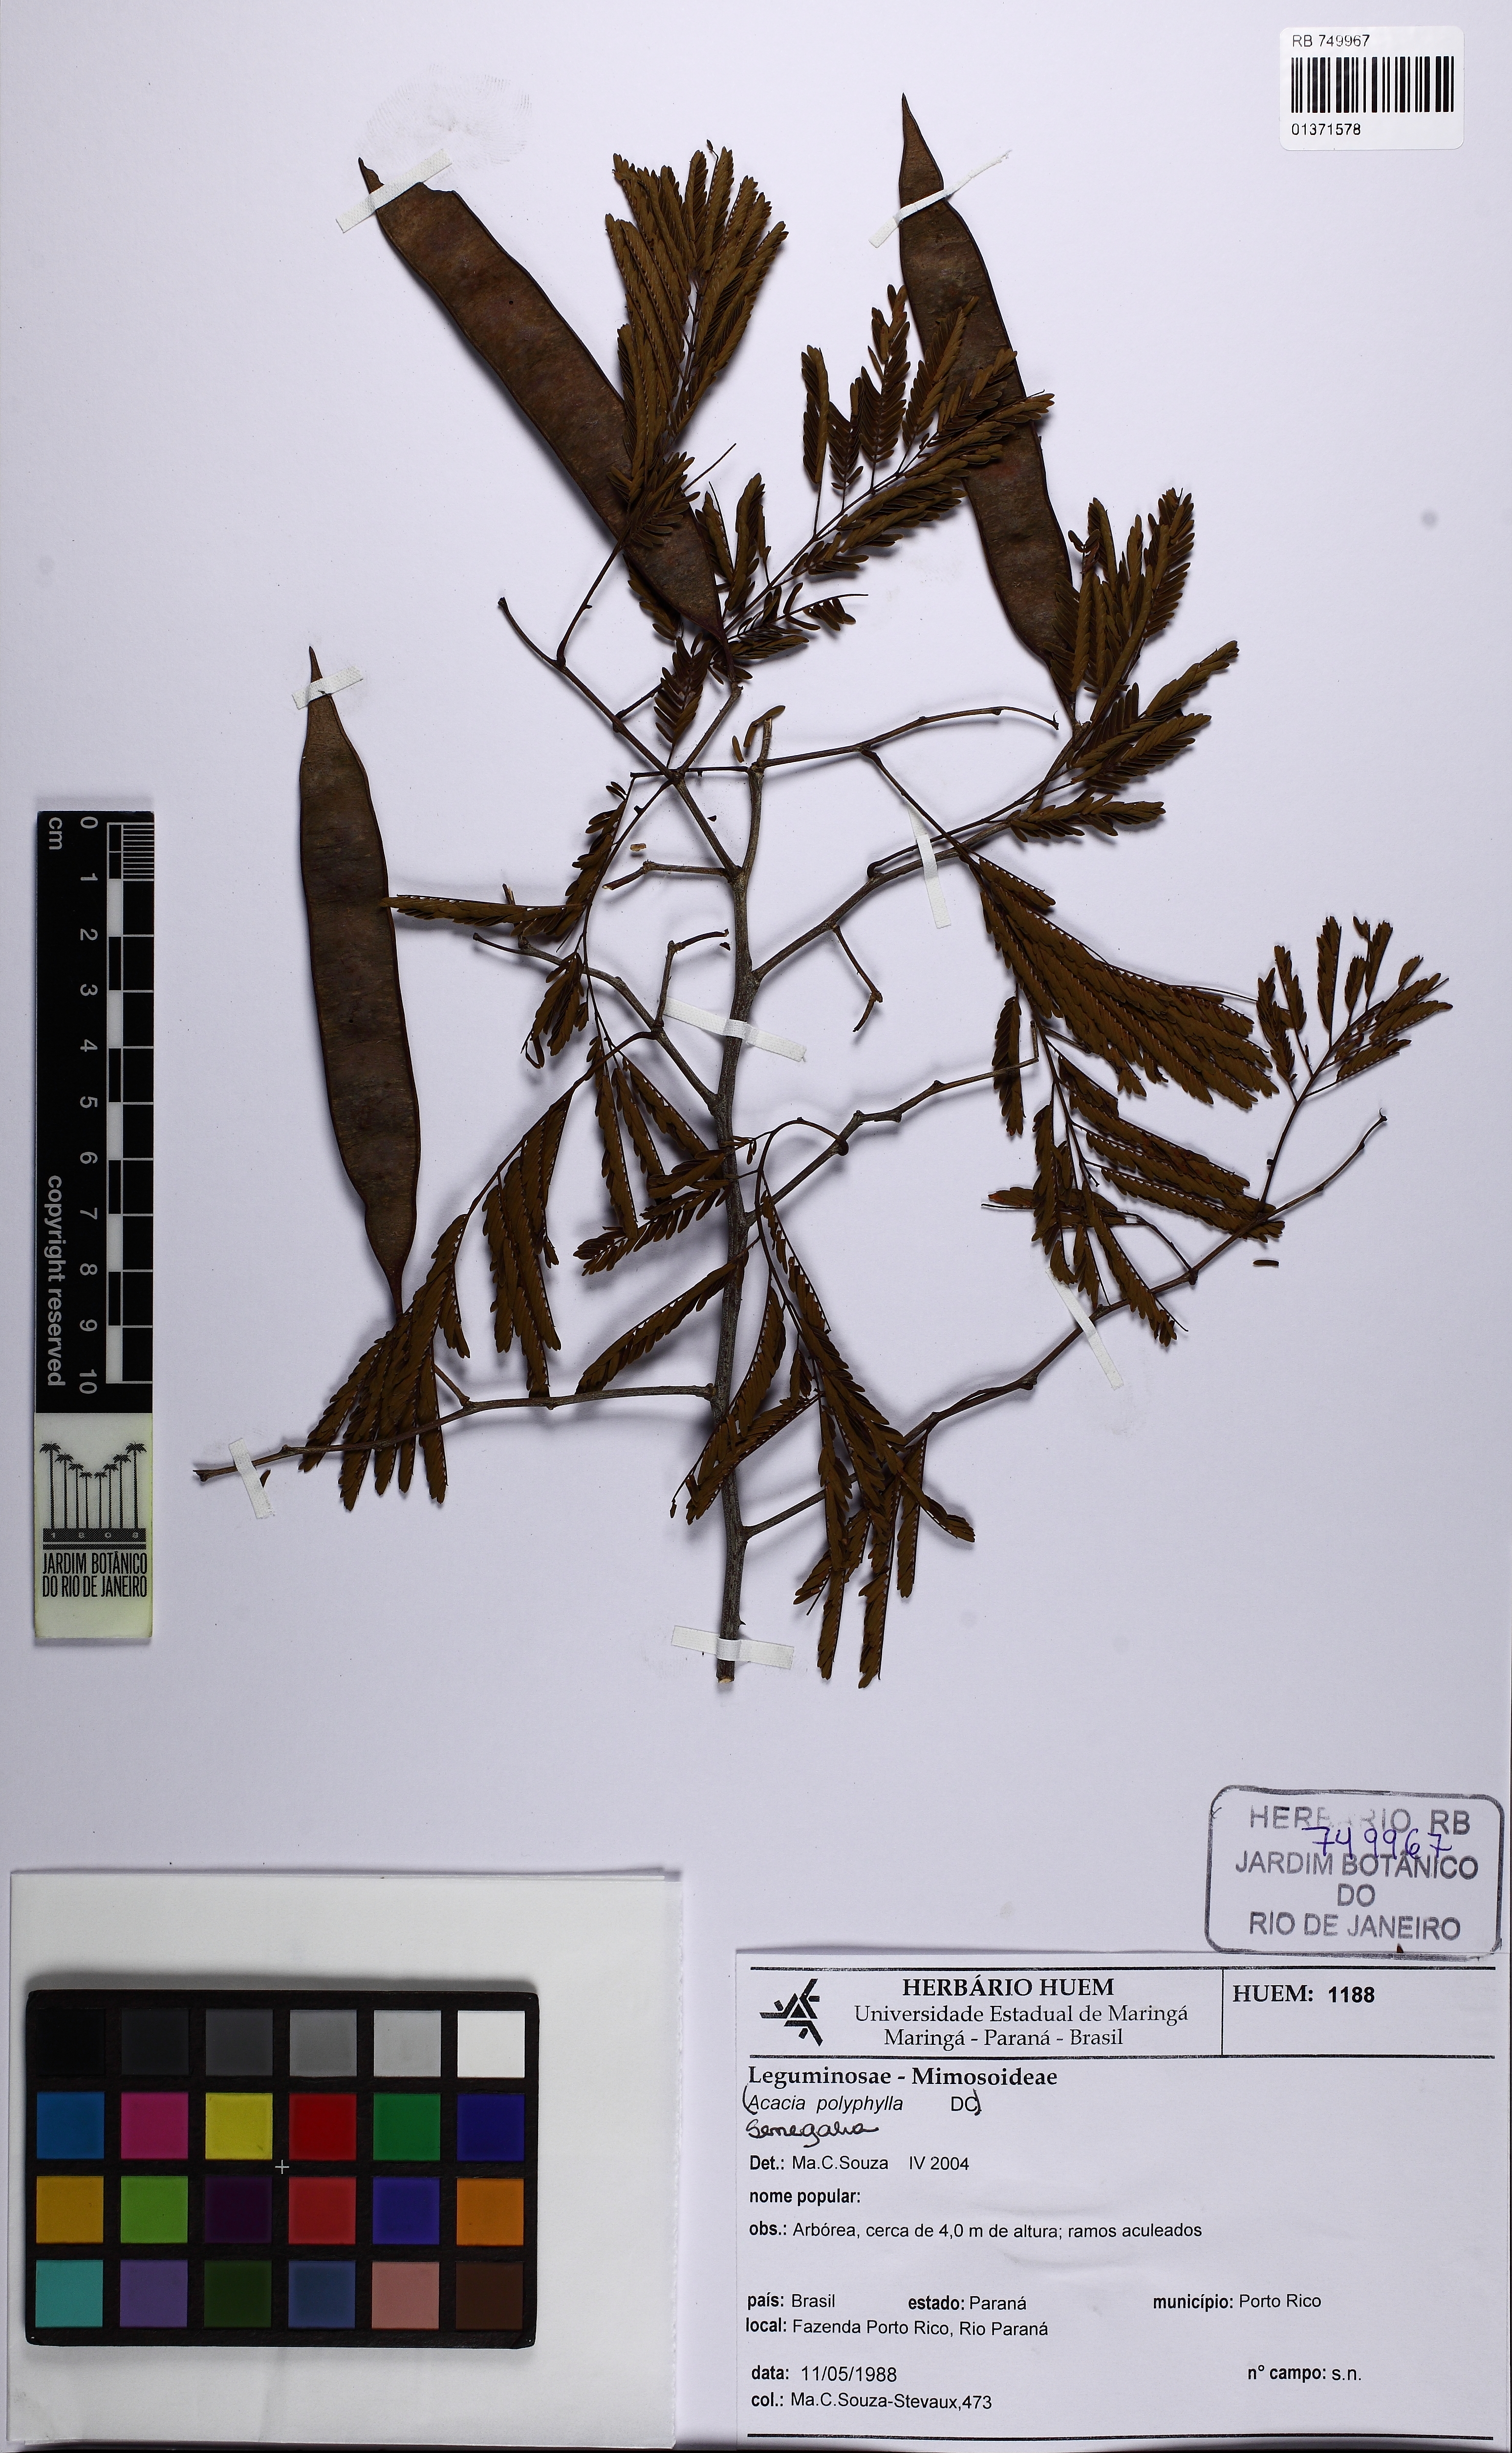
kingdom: Plantae
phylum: Tracheophyta
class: Magnoliopsida
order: Fabales
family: Fabaceae
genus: Senegalia
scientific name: Senegalia tucumanensis
